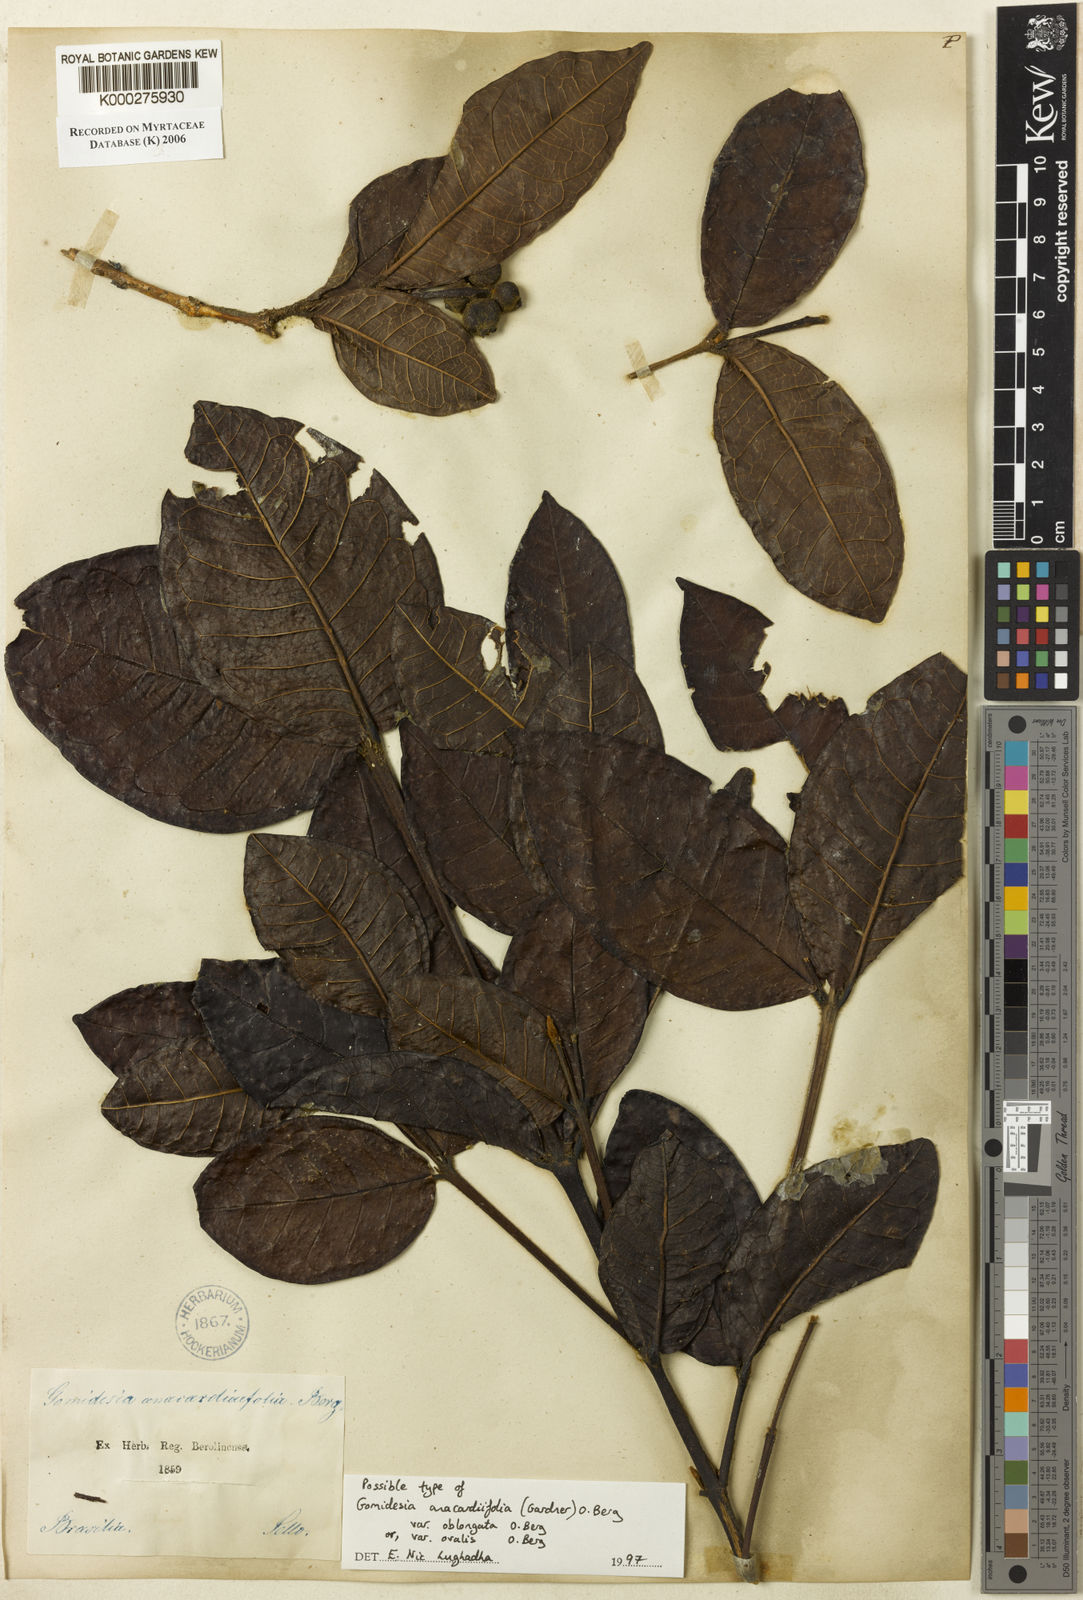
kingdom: Plantae
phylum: Tracheophyta
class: Magnoliopsida
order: Myrtales
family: Myrtaceae
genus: Myrcia
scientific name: Myrcia anacardiifolia
